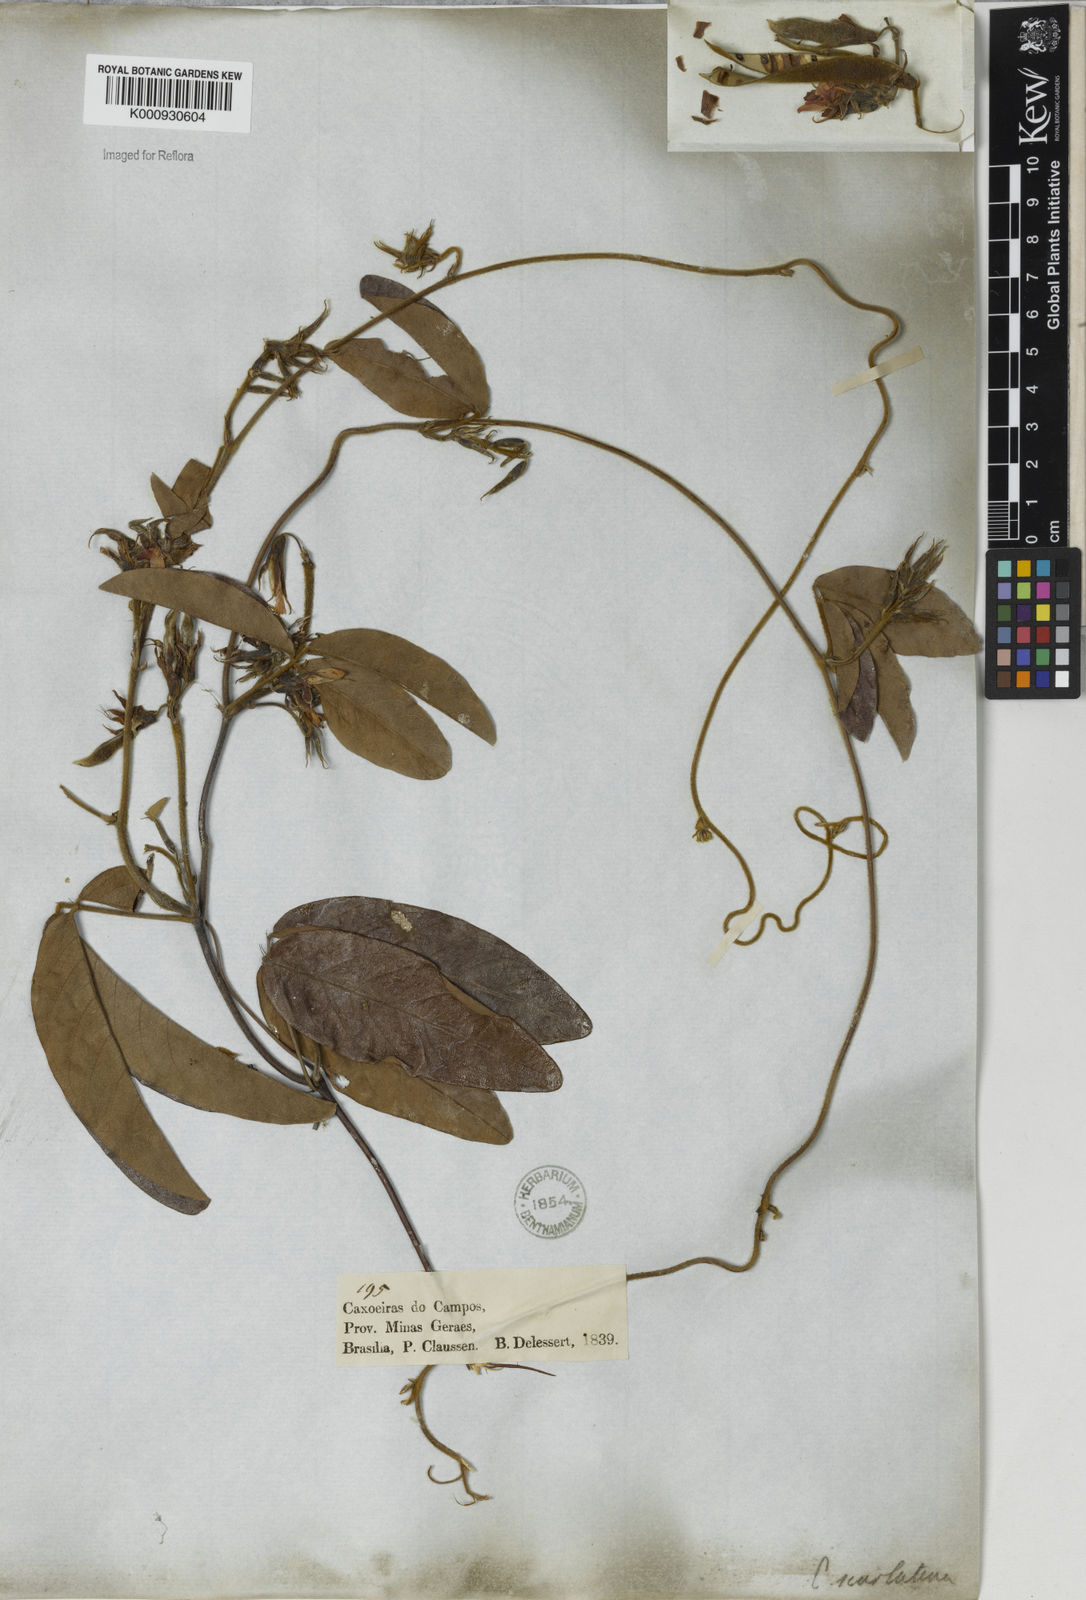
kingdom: Plantae
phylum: Tracheophyta
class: Magnoliopsida
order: Fabales
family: Fabaceae
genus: Betencourtia
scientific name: Betencourtia scarlatina
